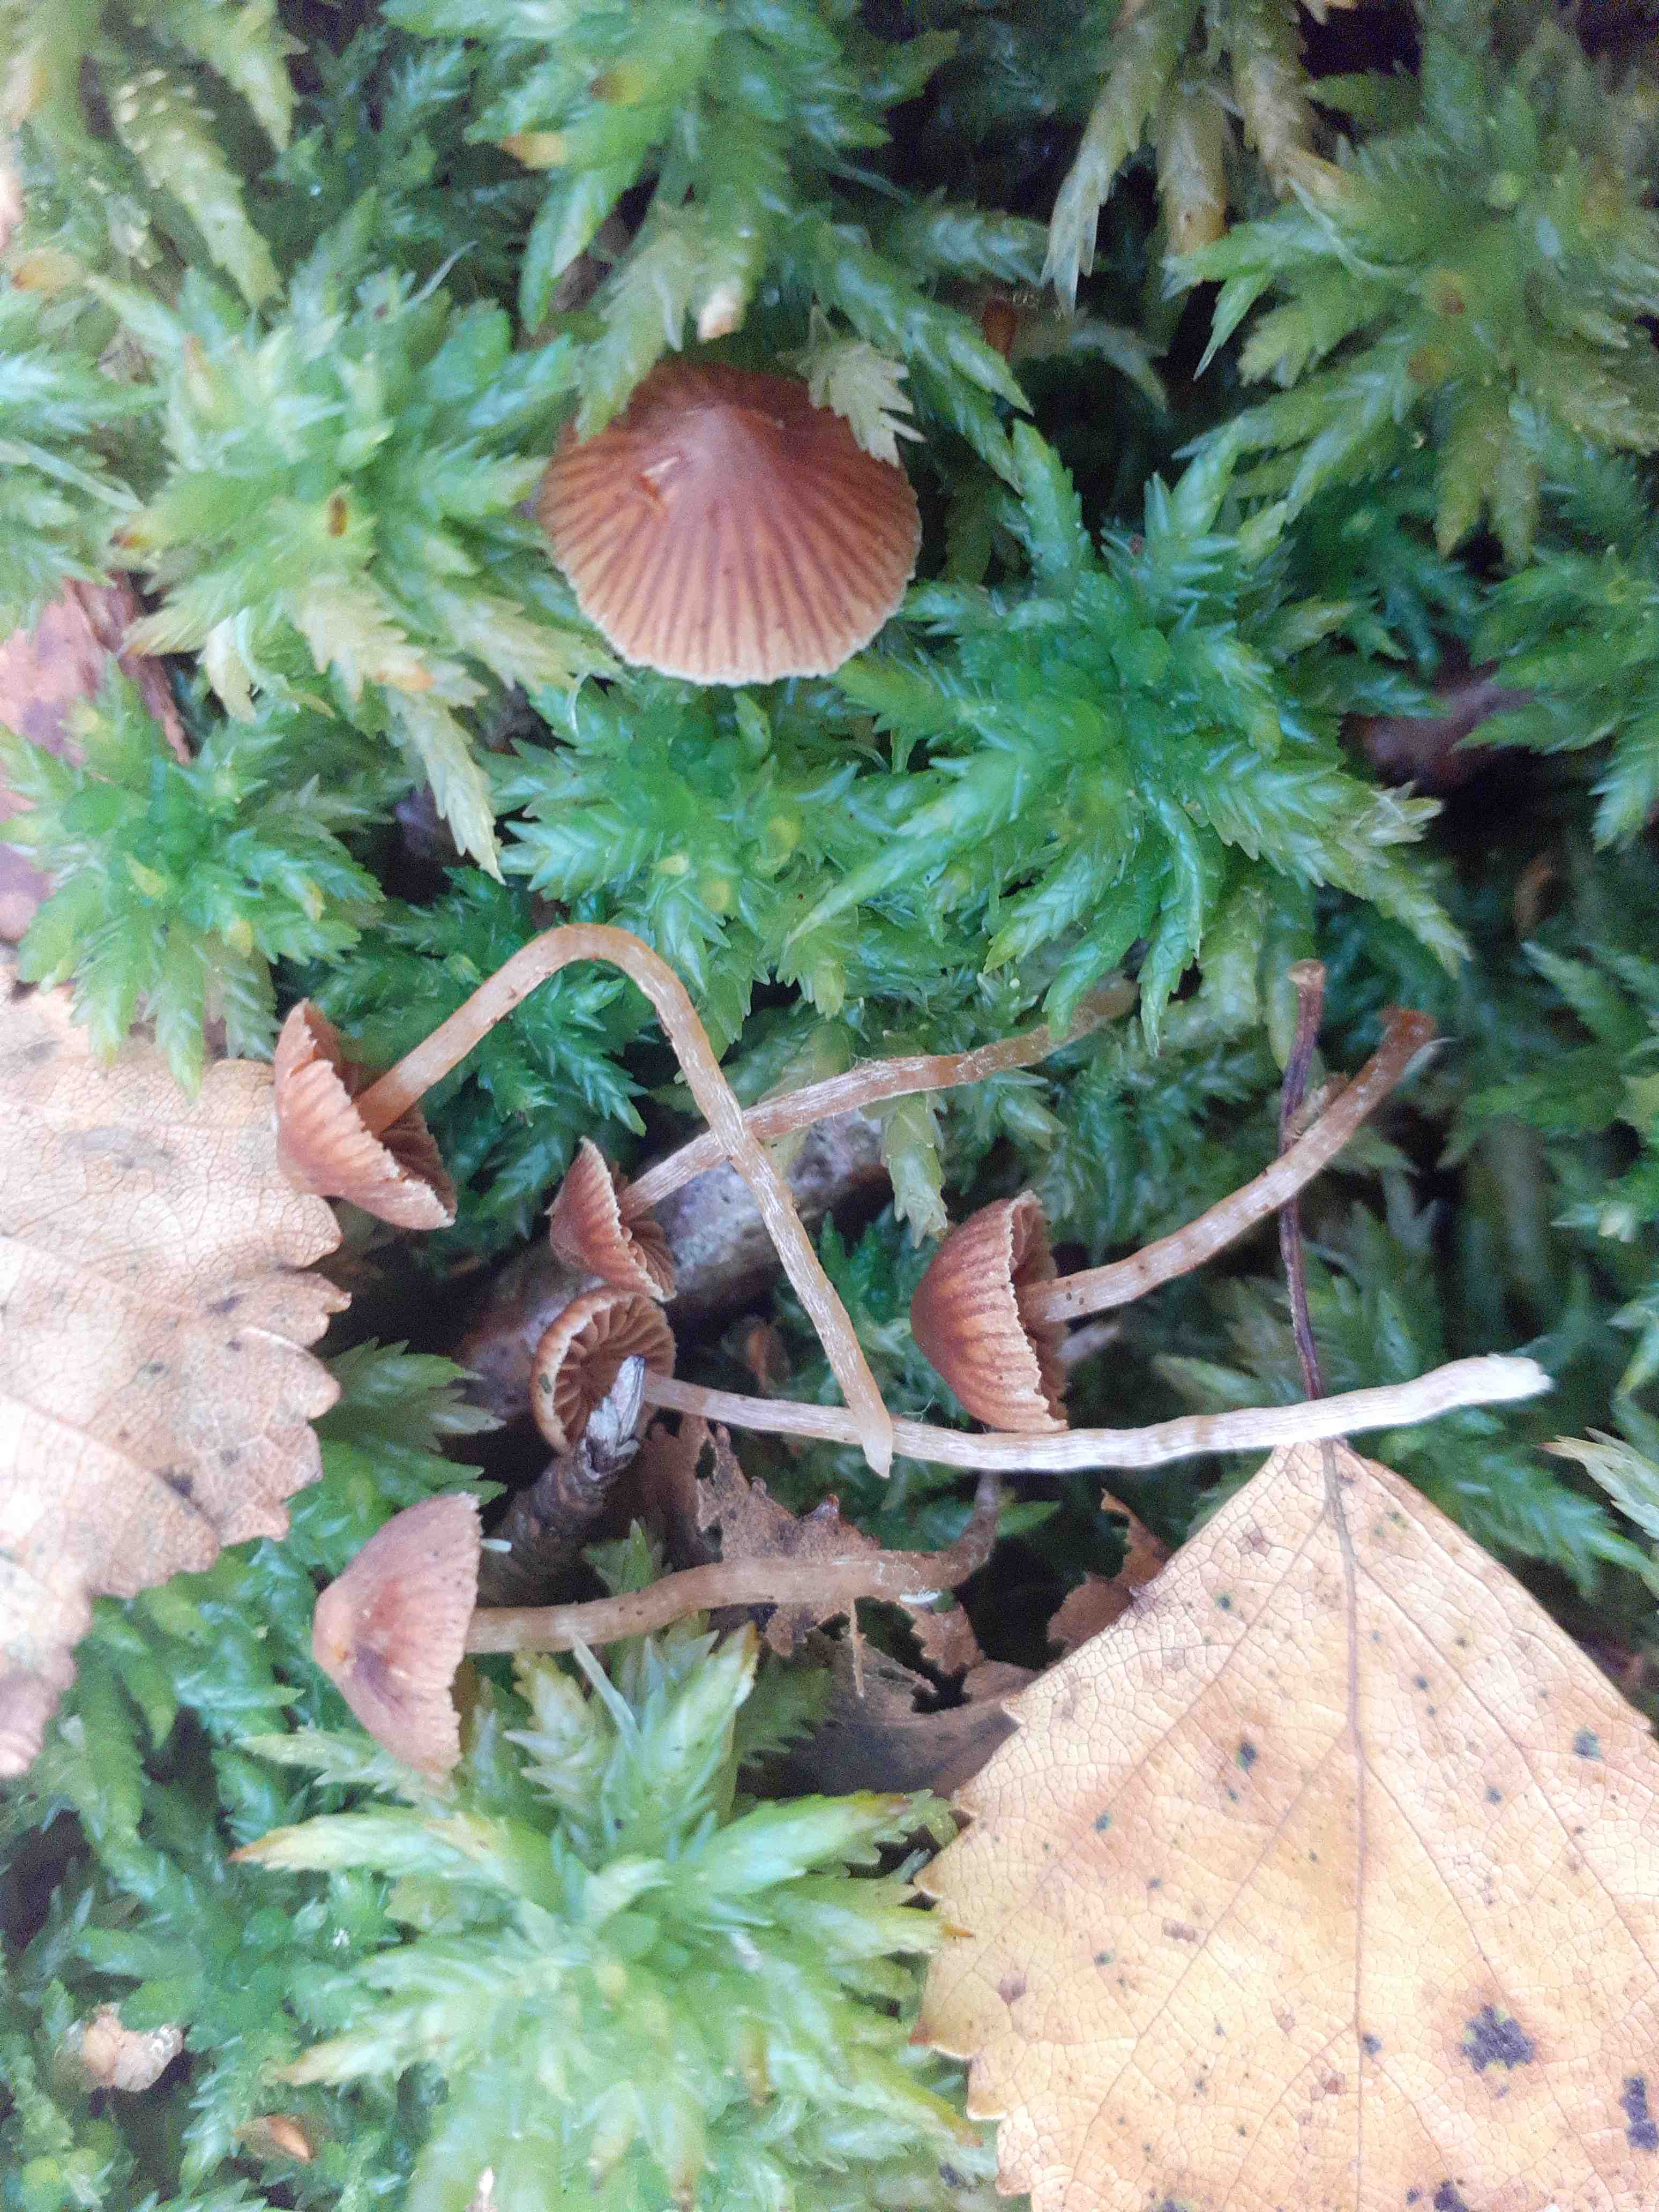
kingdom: Fungi
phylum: Basidiomycota
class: Agaricomycetes
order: Agaricales
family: Cortinariaceae
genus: Cortinarius
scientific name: Cortinarius acutus
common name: spids slørhat
